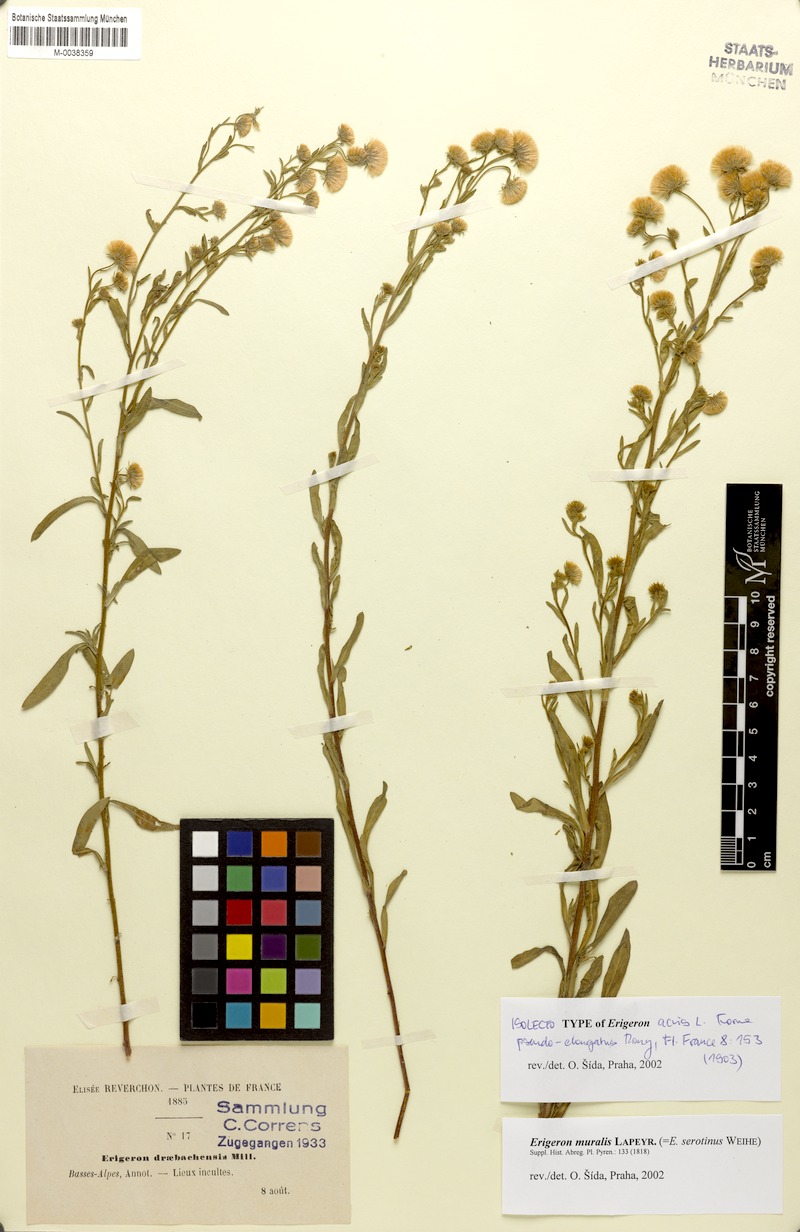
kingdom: Plantae
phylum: Tracheophyta
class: Magnoliopsida
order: Asterales
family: Asteraceae
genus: Erigeron
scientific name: Erigeron muralis
